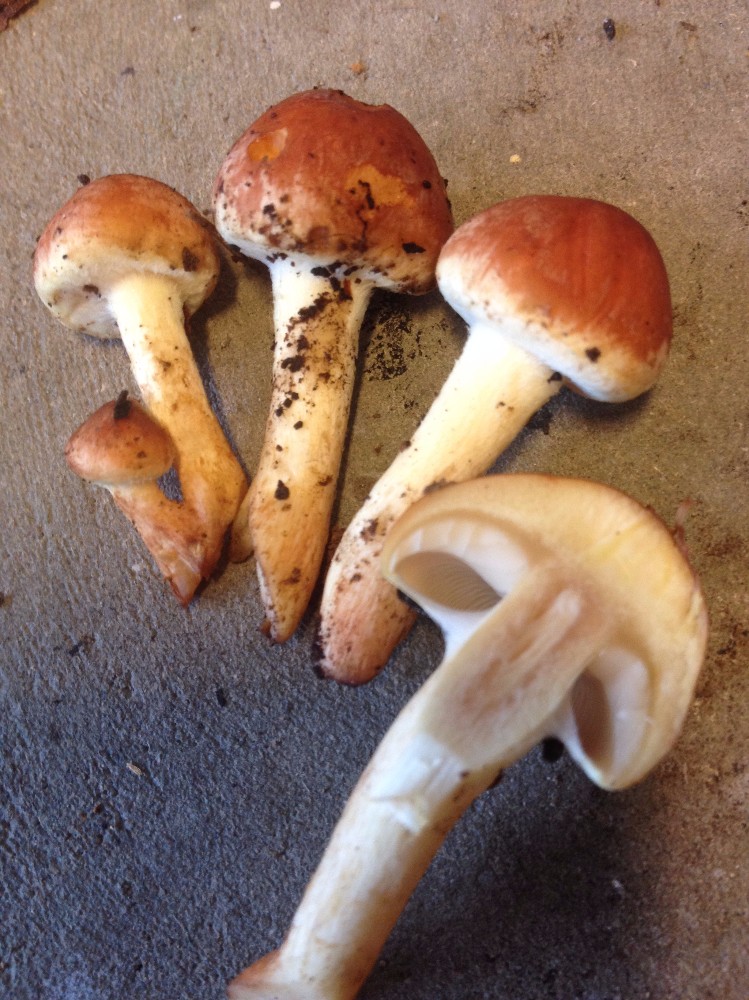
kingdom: Fungi
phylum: Basidiomycota
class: Agaricomycetes
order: Agaricales
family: Strophariaceae
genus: Hypholoma
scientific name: Hypholoma lateritium
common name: teglrød svovlhat
